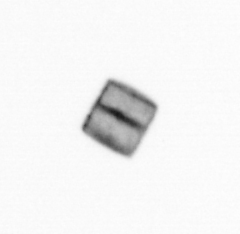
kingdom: Chromista
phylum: Ochrophyta
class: Bacillariophyceae
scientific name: Bacillariophyceae
